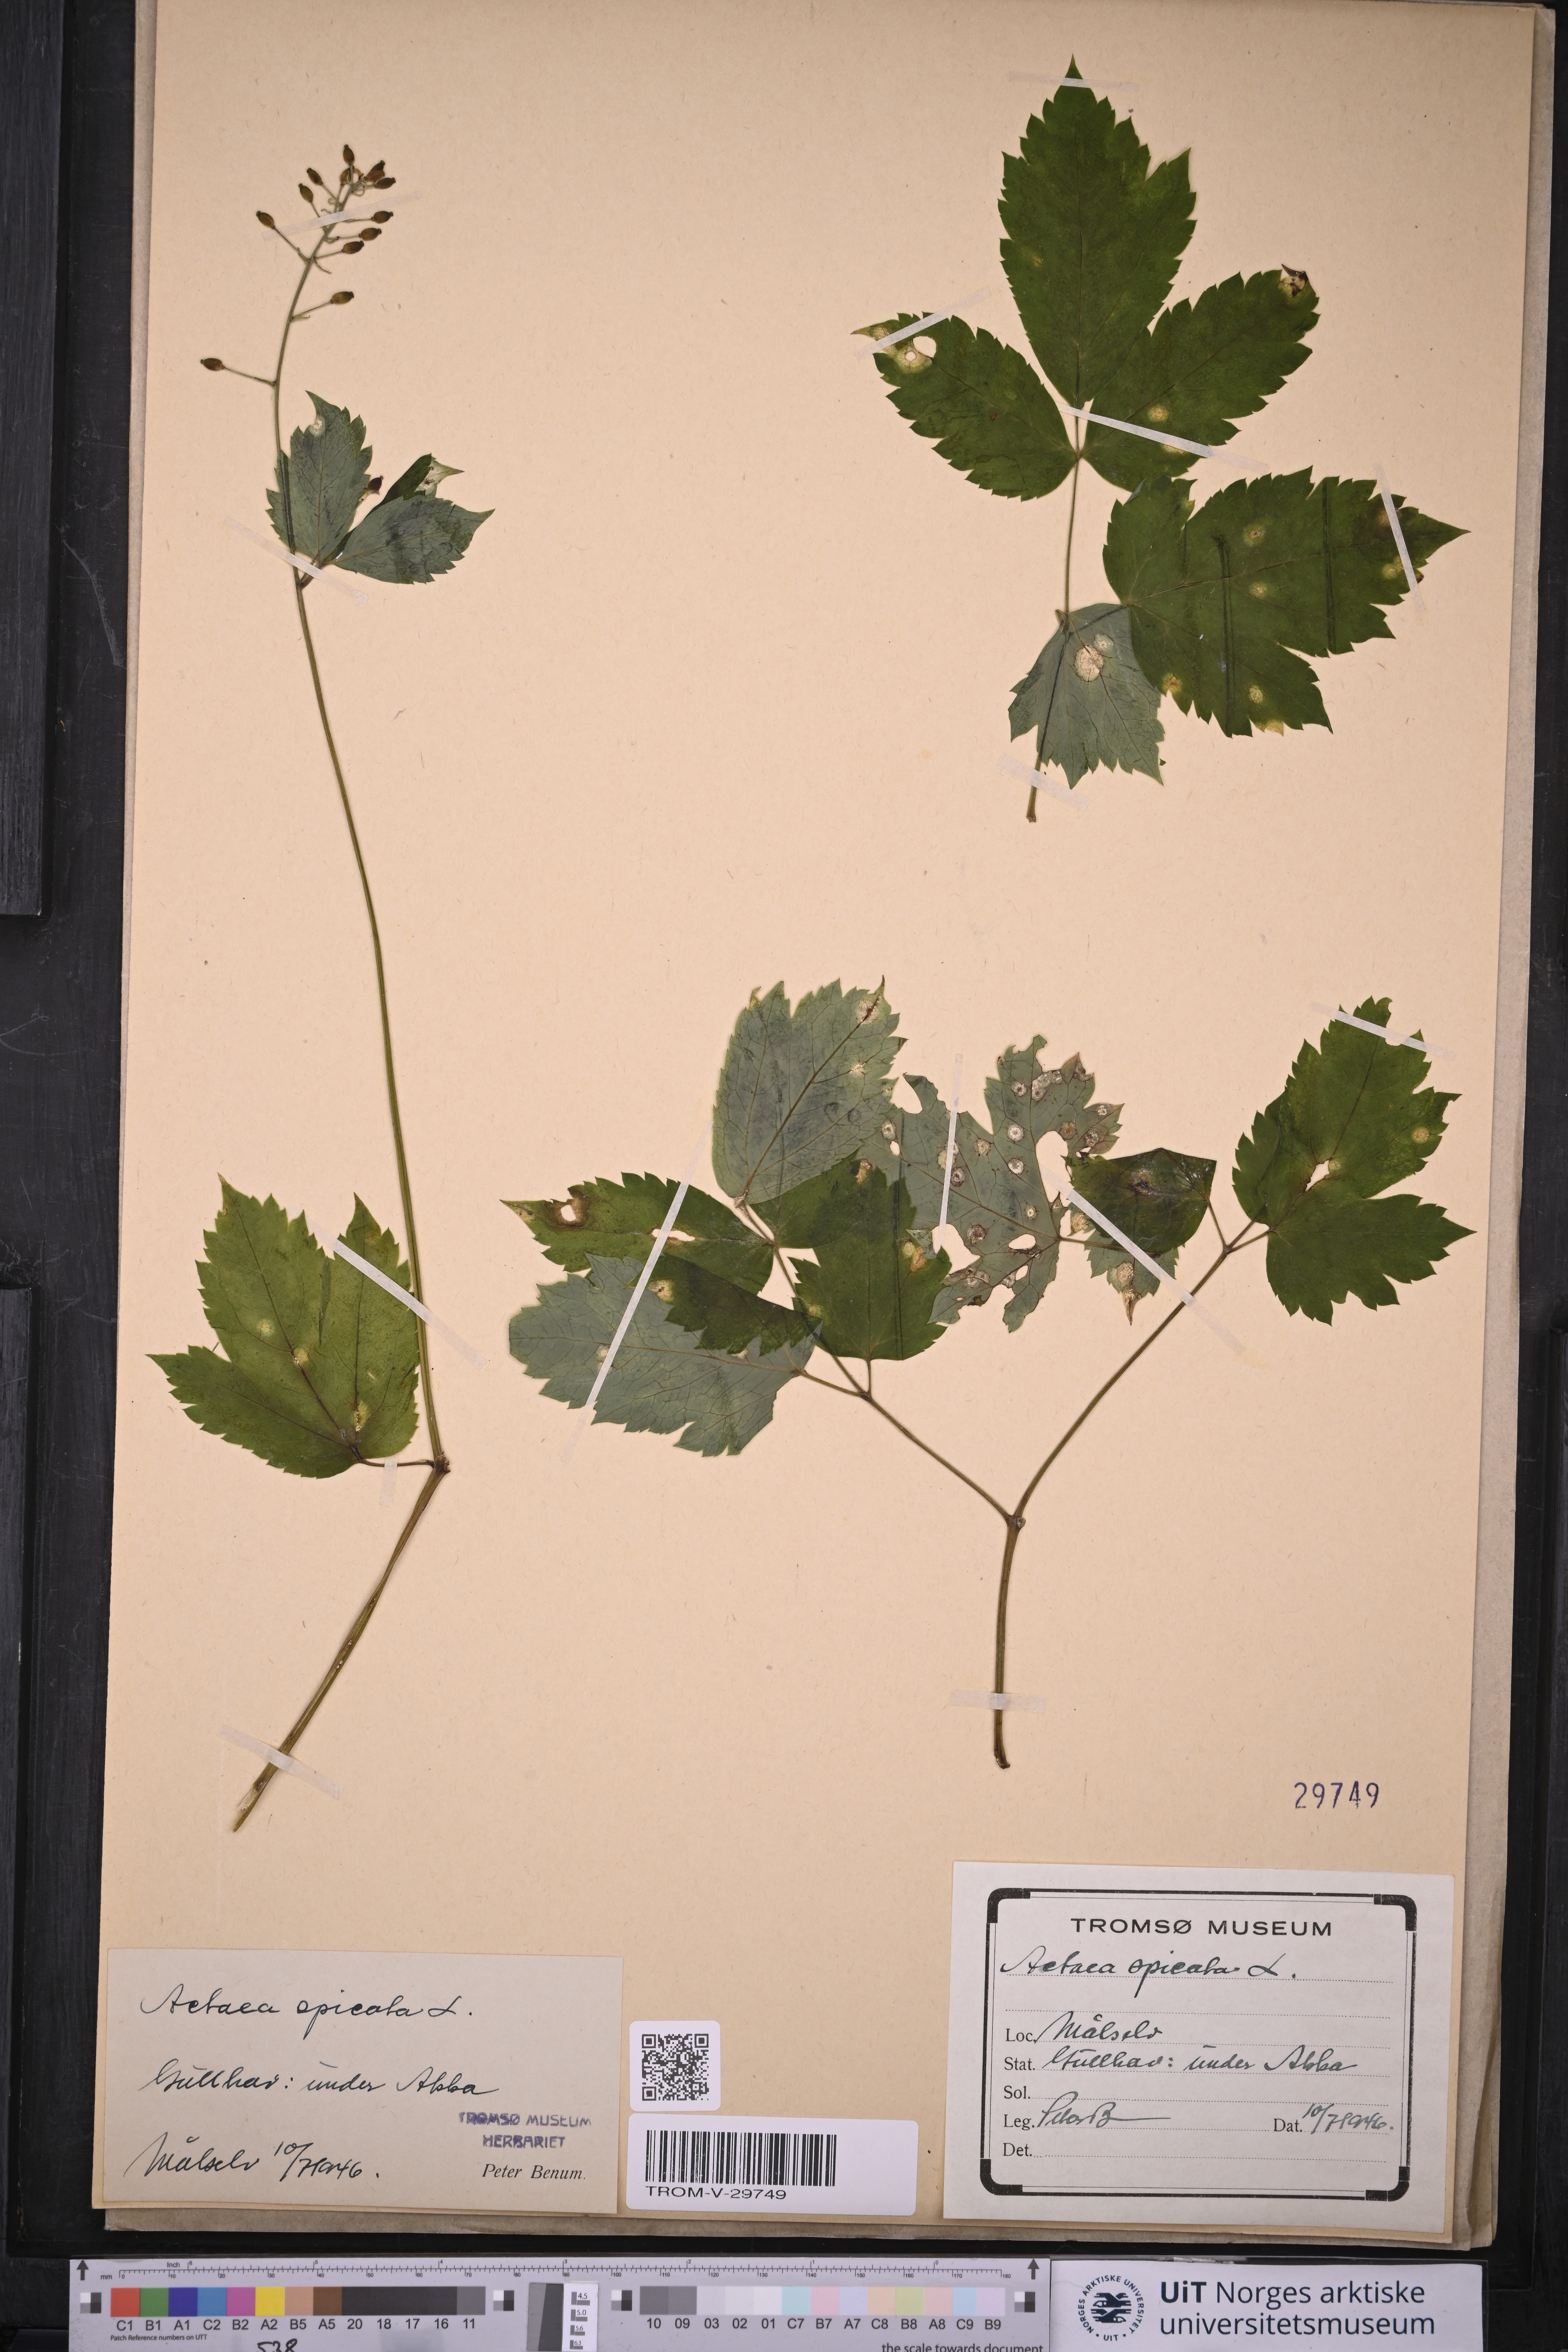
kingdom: Plantae
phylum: Tracheophyta
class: Magnoliopsida
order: Ranunculales
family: Ranunculaceae
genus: Actaea
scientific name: Actaea spicata
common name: Baneberry
